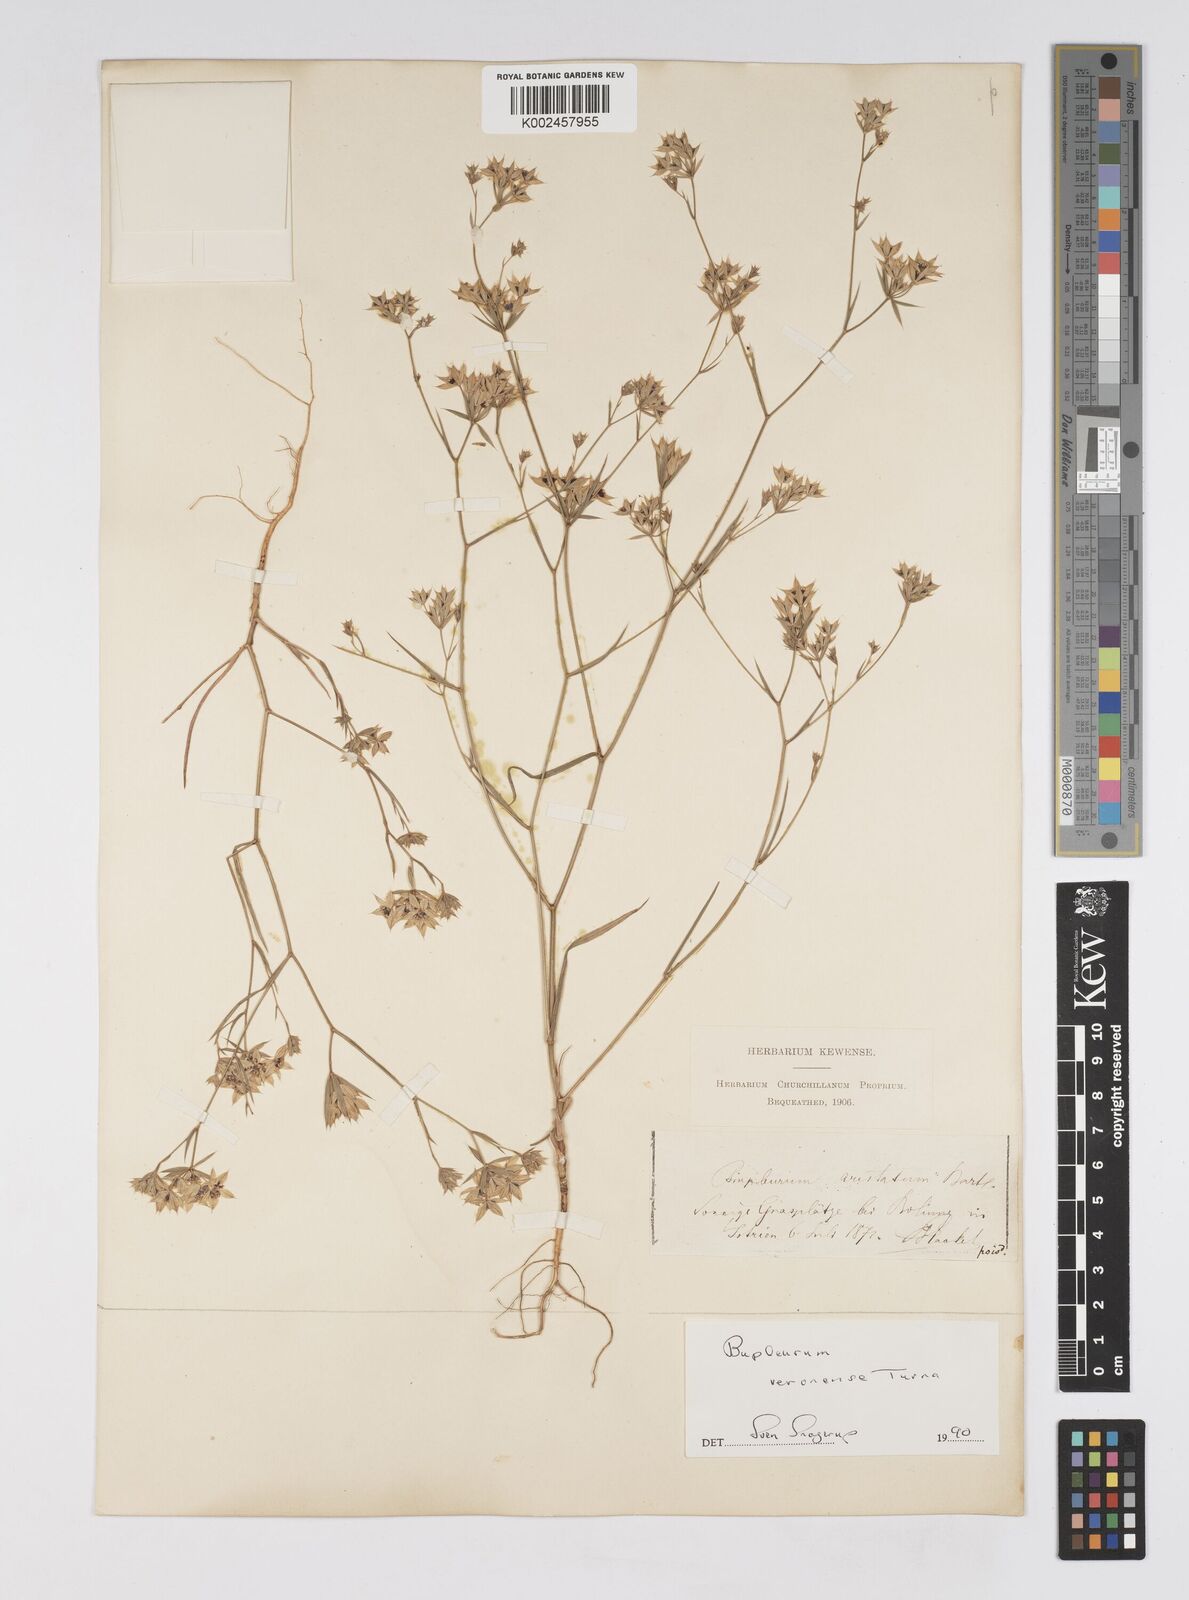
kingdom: Plantae
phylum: Tracheophyta
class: Magnoliopsida
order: Apiales
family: Apiaceae
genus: Bupleurum
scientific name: Bupleurum glumaceum
